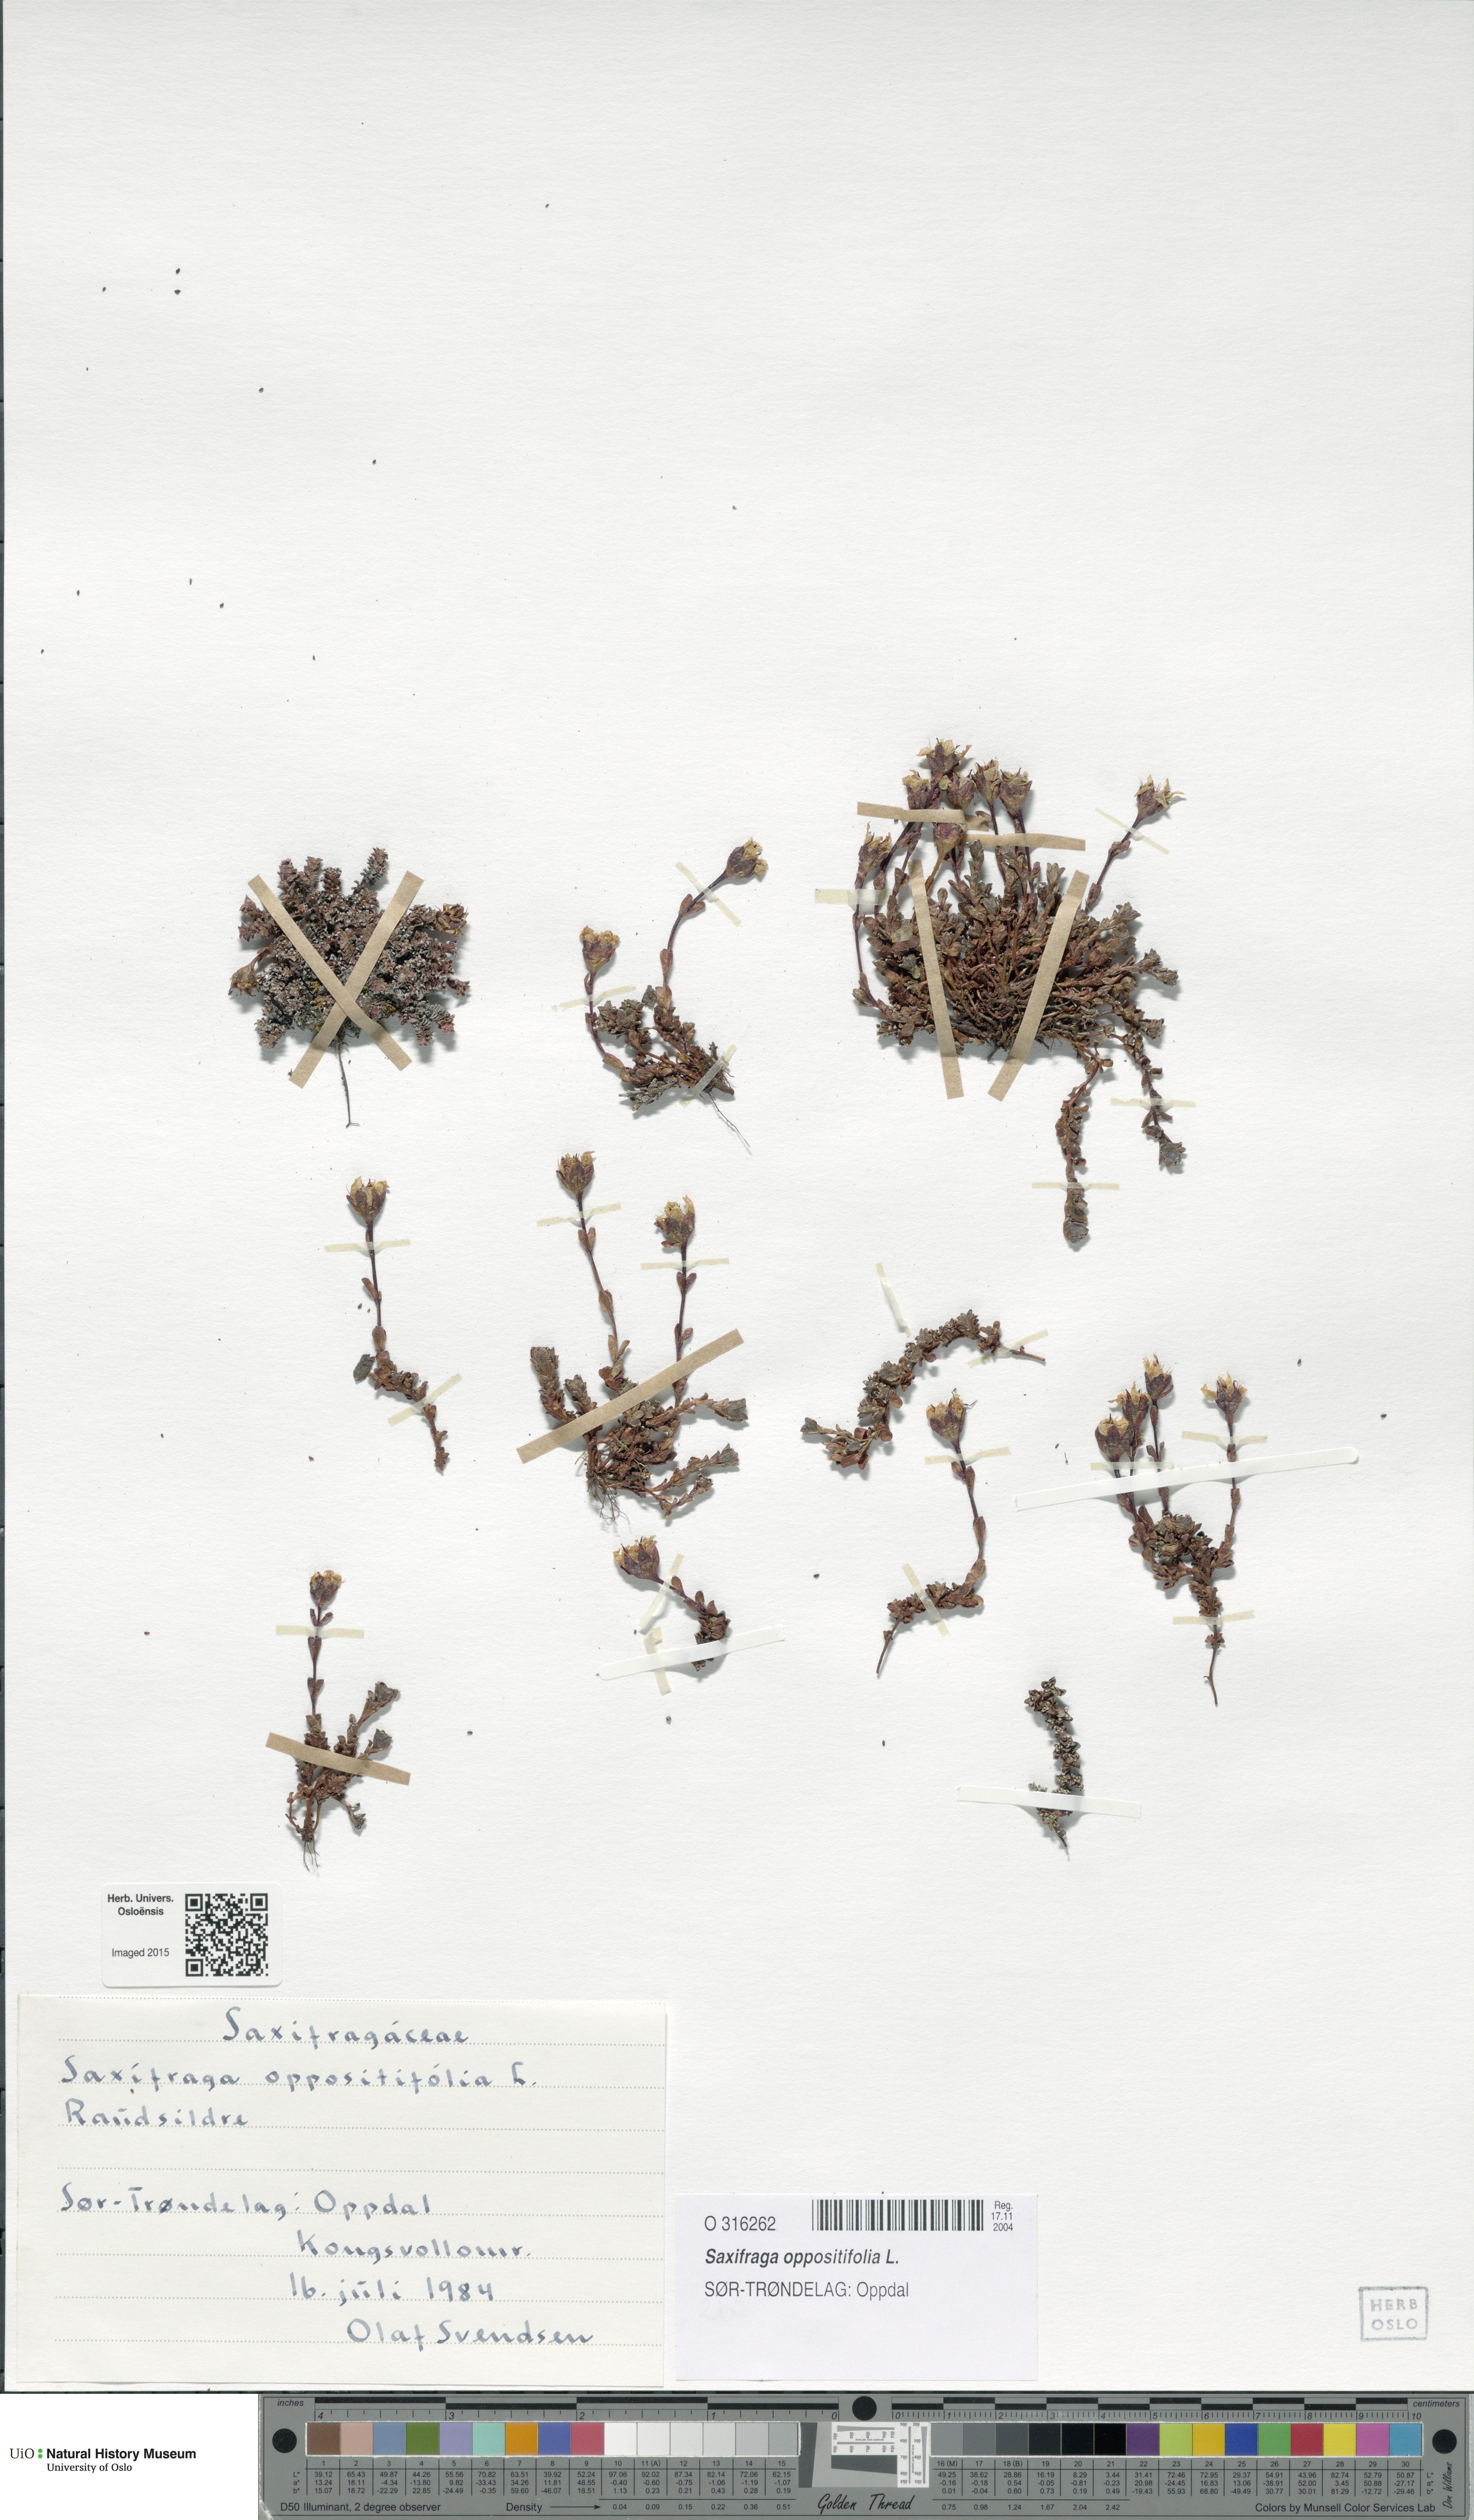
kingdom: Plantae
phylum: Tracheophyta
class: Magnoliopsida
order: Saxifragales
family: Saxifragaceae
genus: Saxifraga
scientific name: Saxifraga oppositifolia
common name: Purple saxifrage
